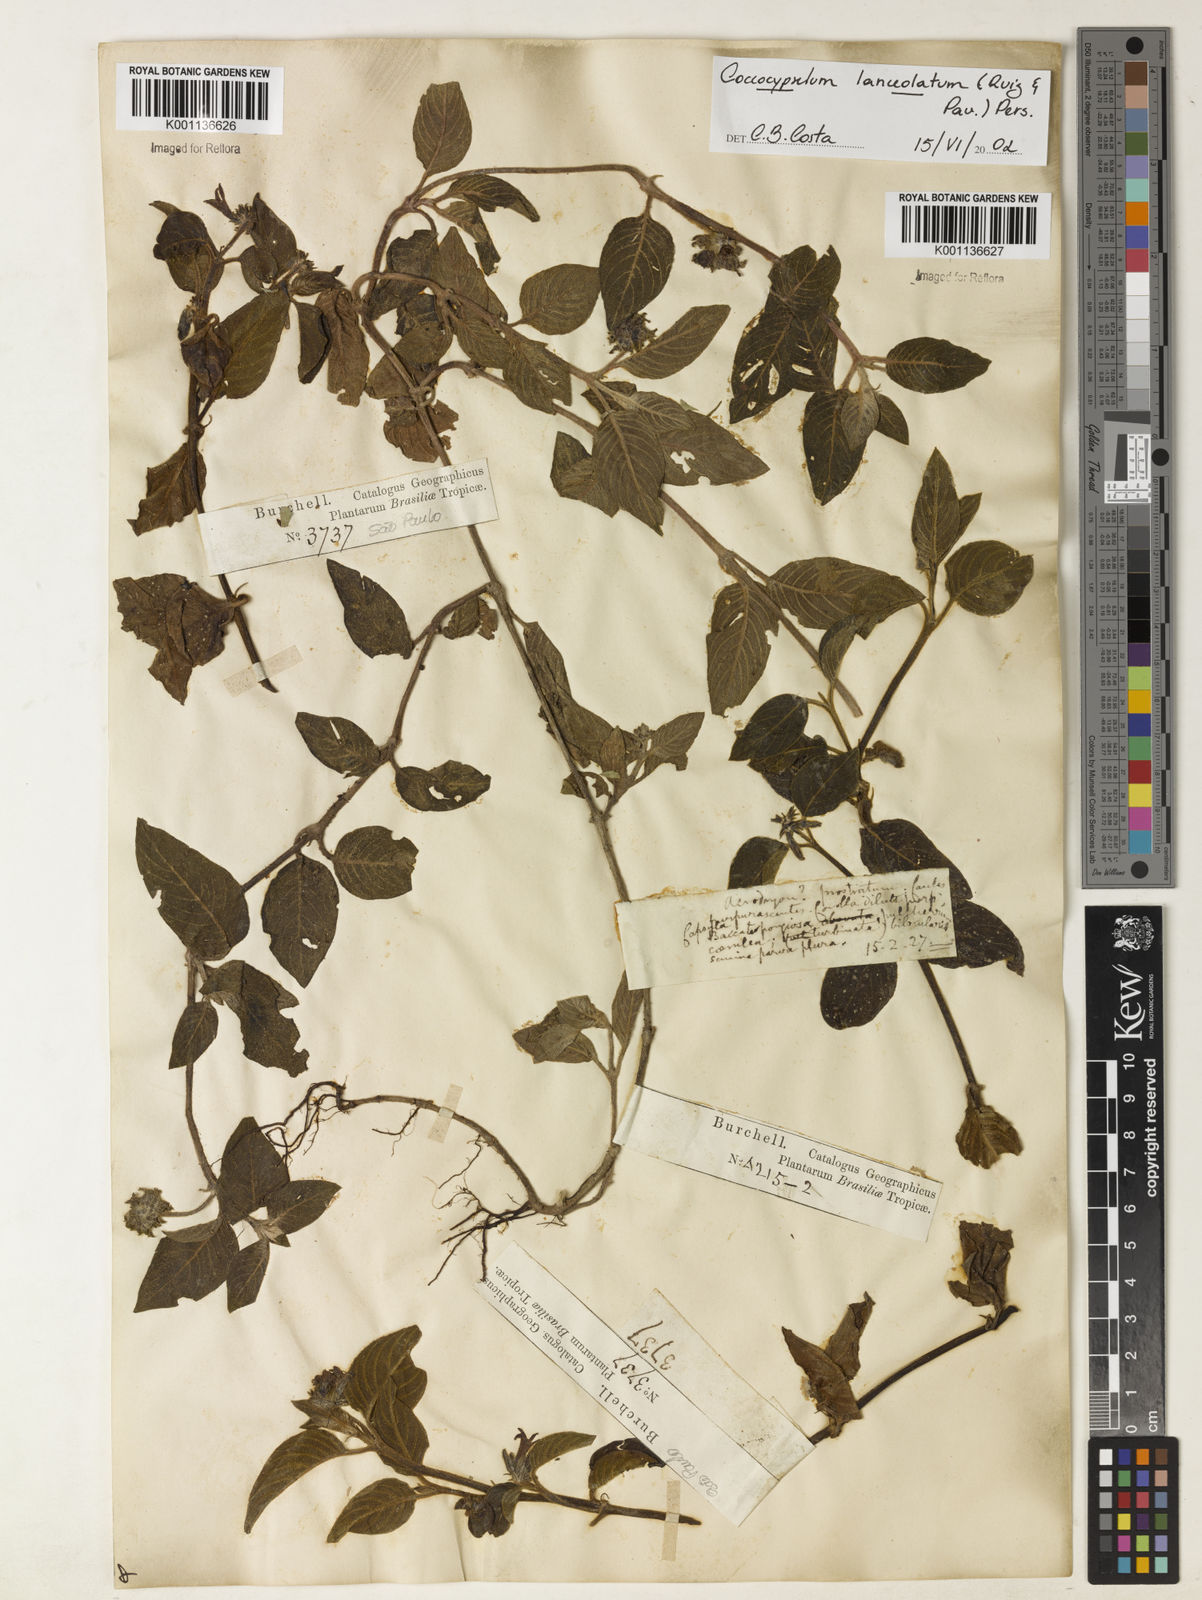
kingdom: Plantae
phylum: Tracheophyta
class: Magnoliopsida
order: Gentianales
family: Rubiaceae
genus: Coccocypselum
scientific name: Coccocypselum lanceolatum
